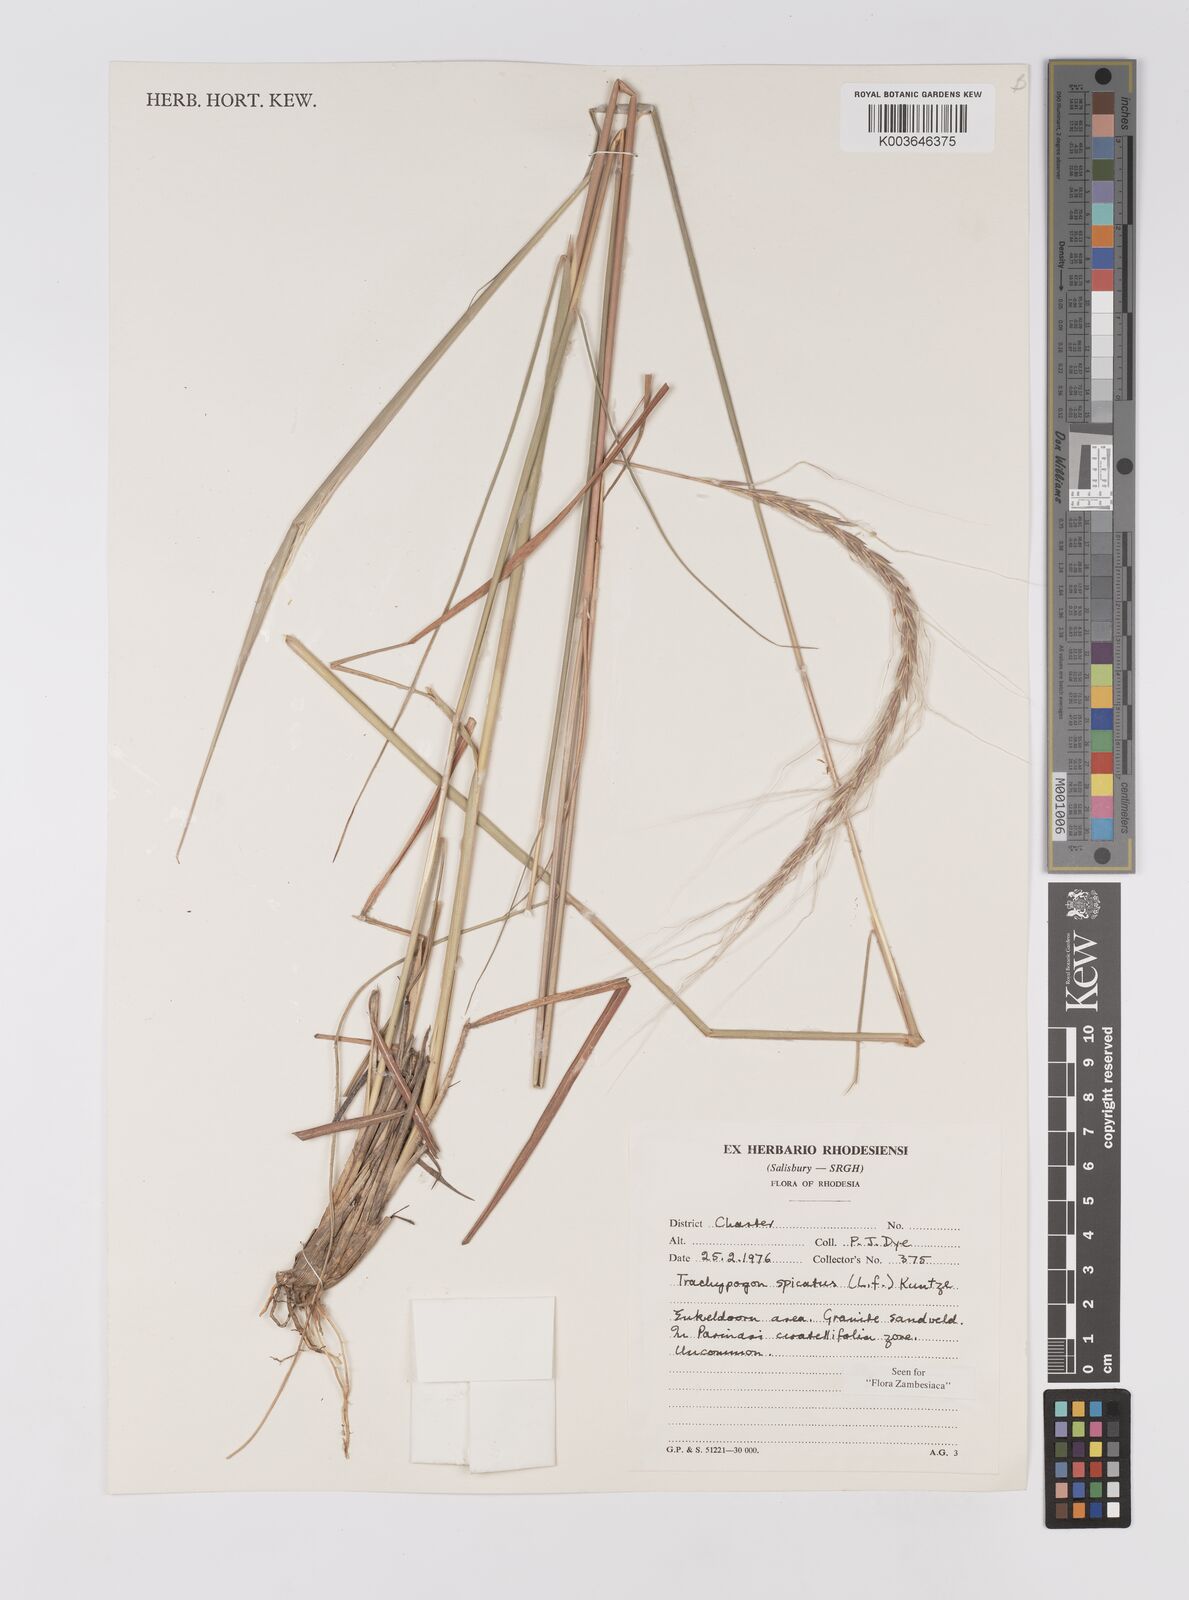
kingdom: Plantae
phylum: Tracheophyta
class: Liliopsida
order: Poales
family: Poaceae
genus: Trachypogon
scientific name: Trachypogon spicatus
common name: Crinkle-awn
